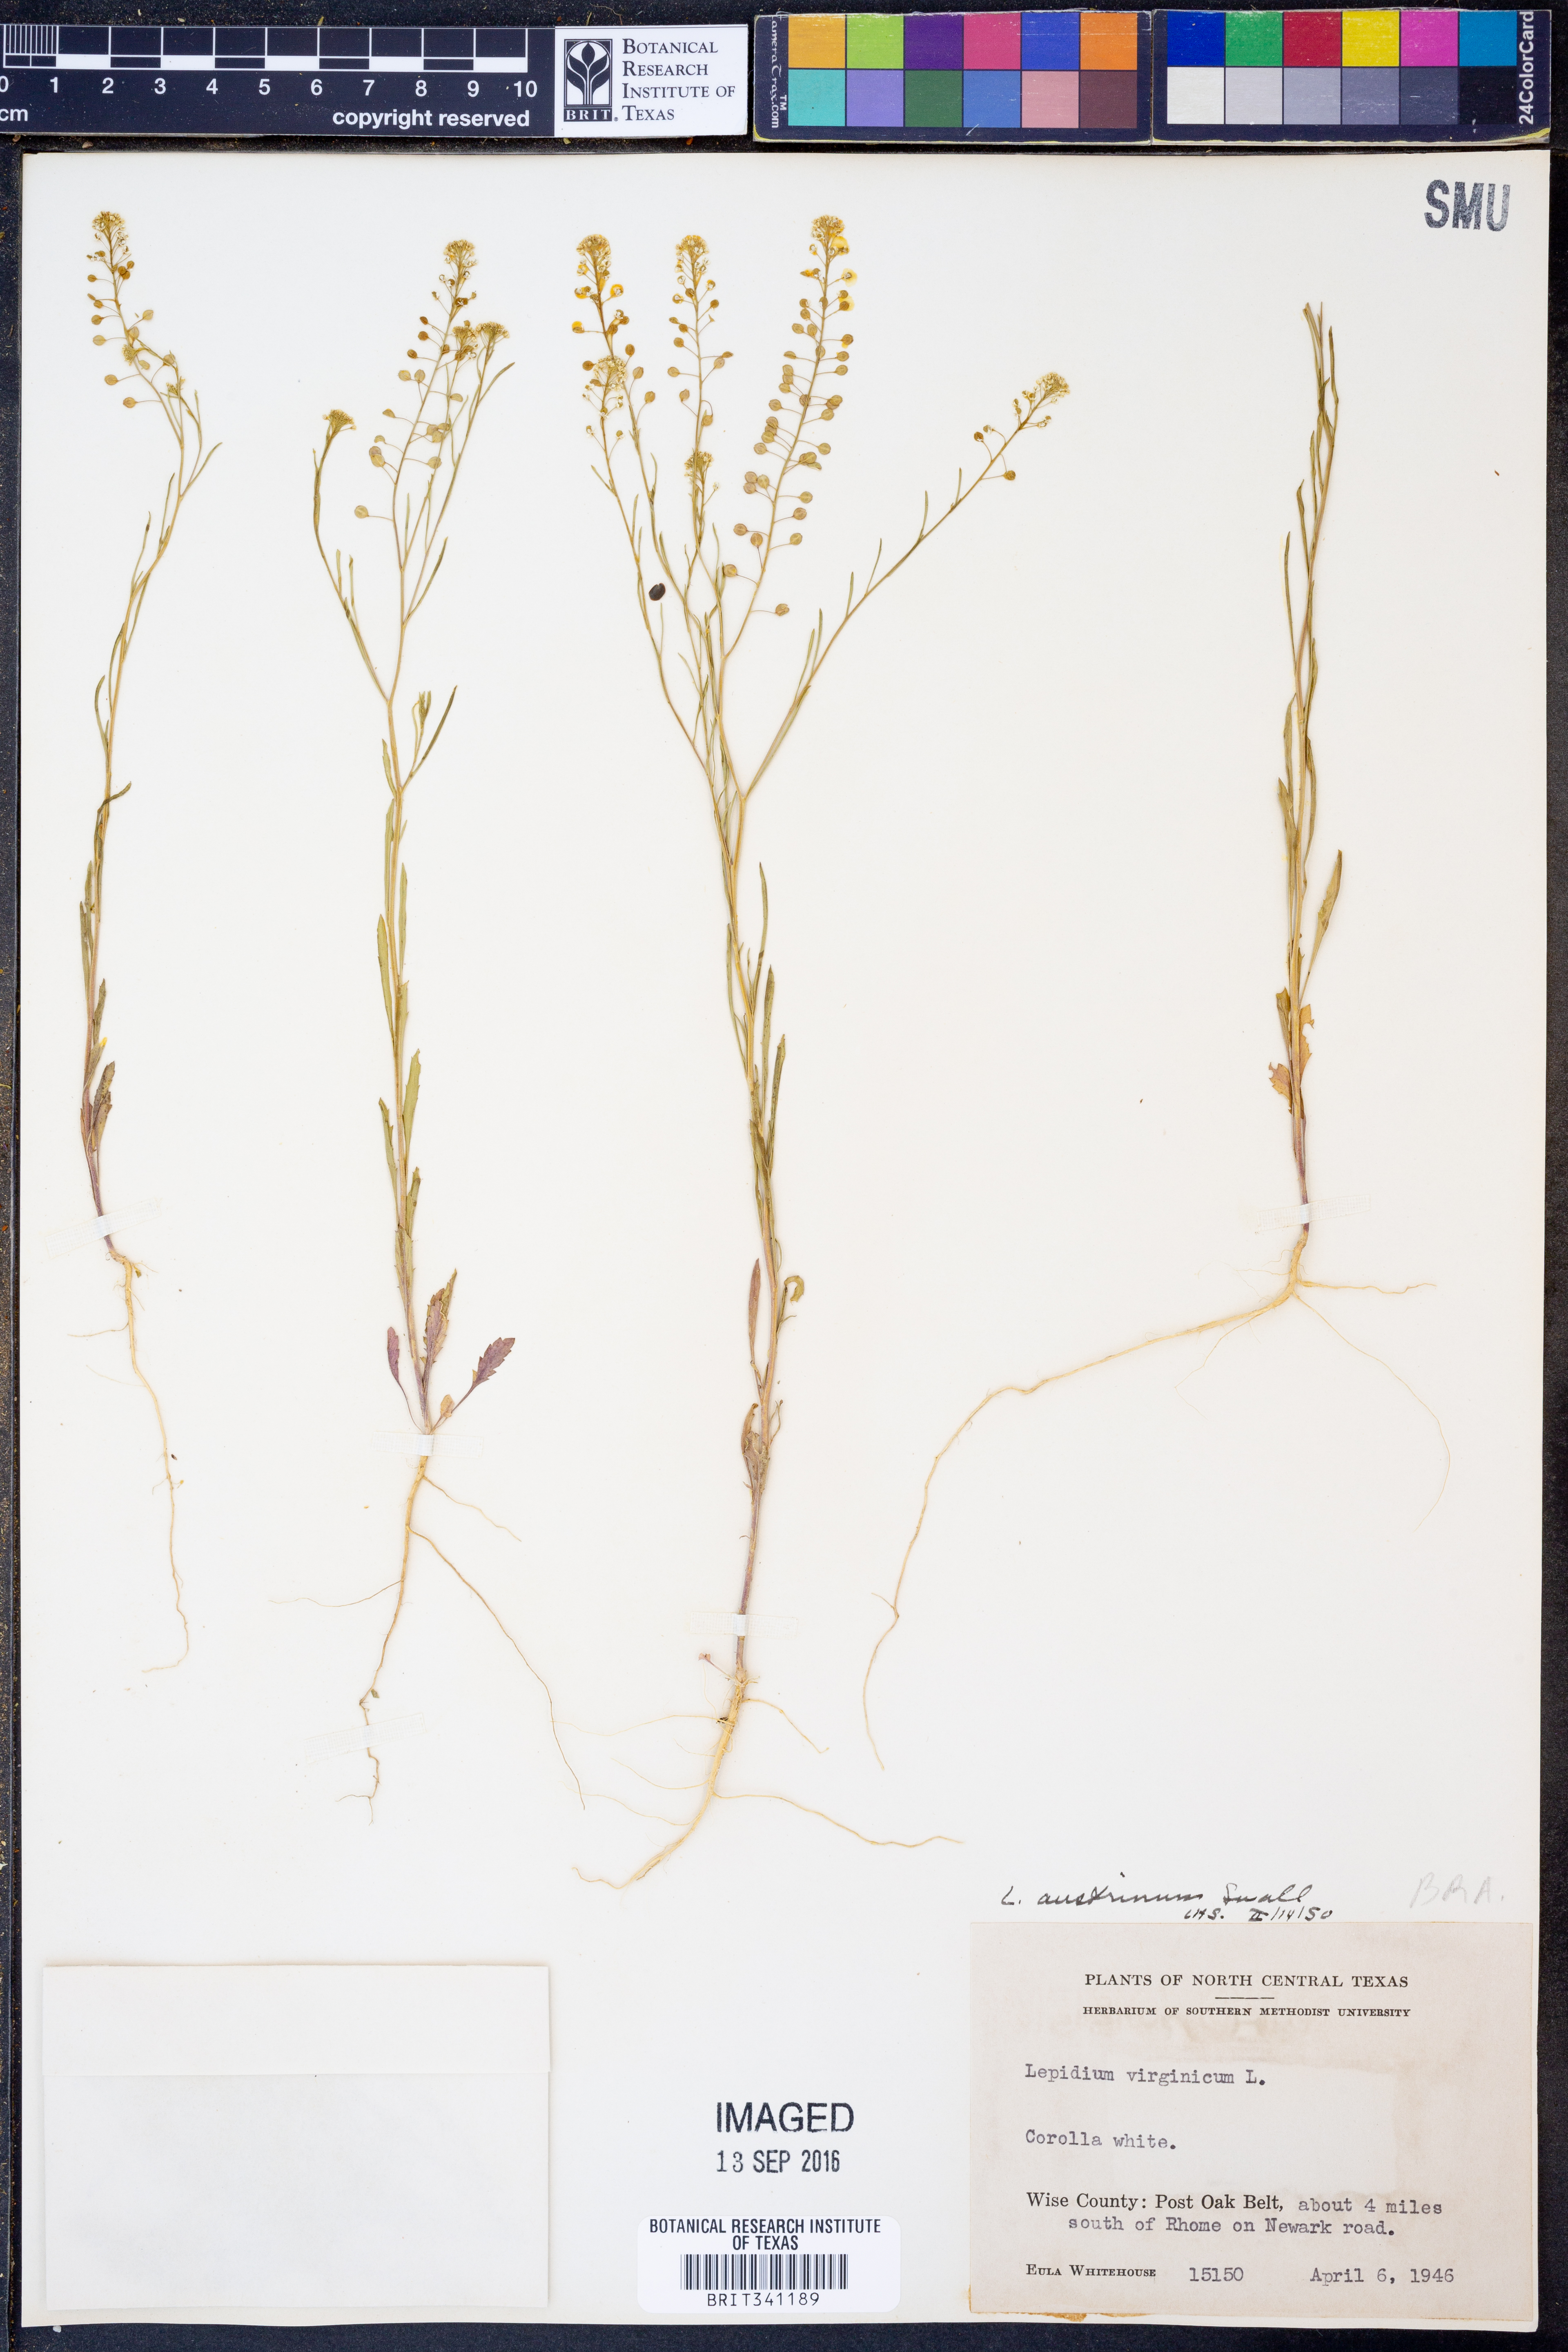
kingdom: Plantae
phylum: Tracheophyta
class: Magnoliopsida
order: Brassicales
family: Brassicaceae
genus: Lepidium
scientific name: Lepidium austrinum
